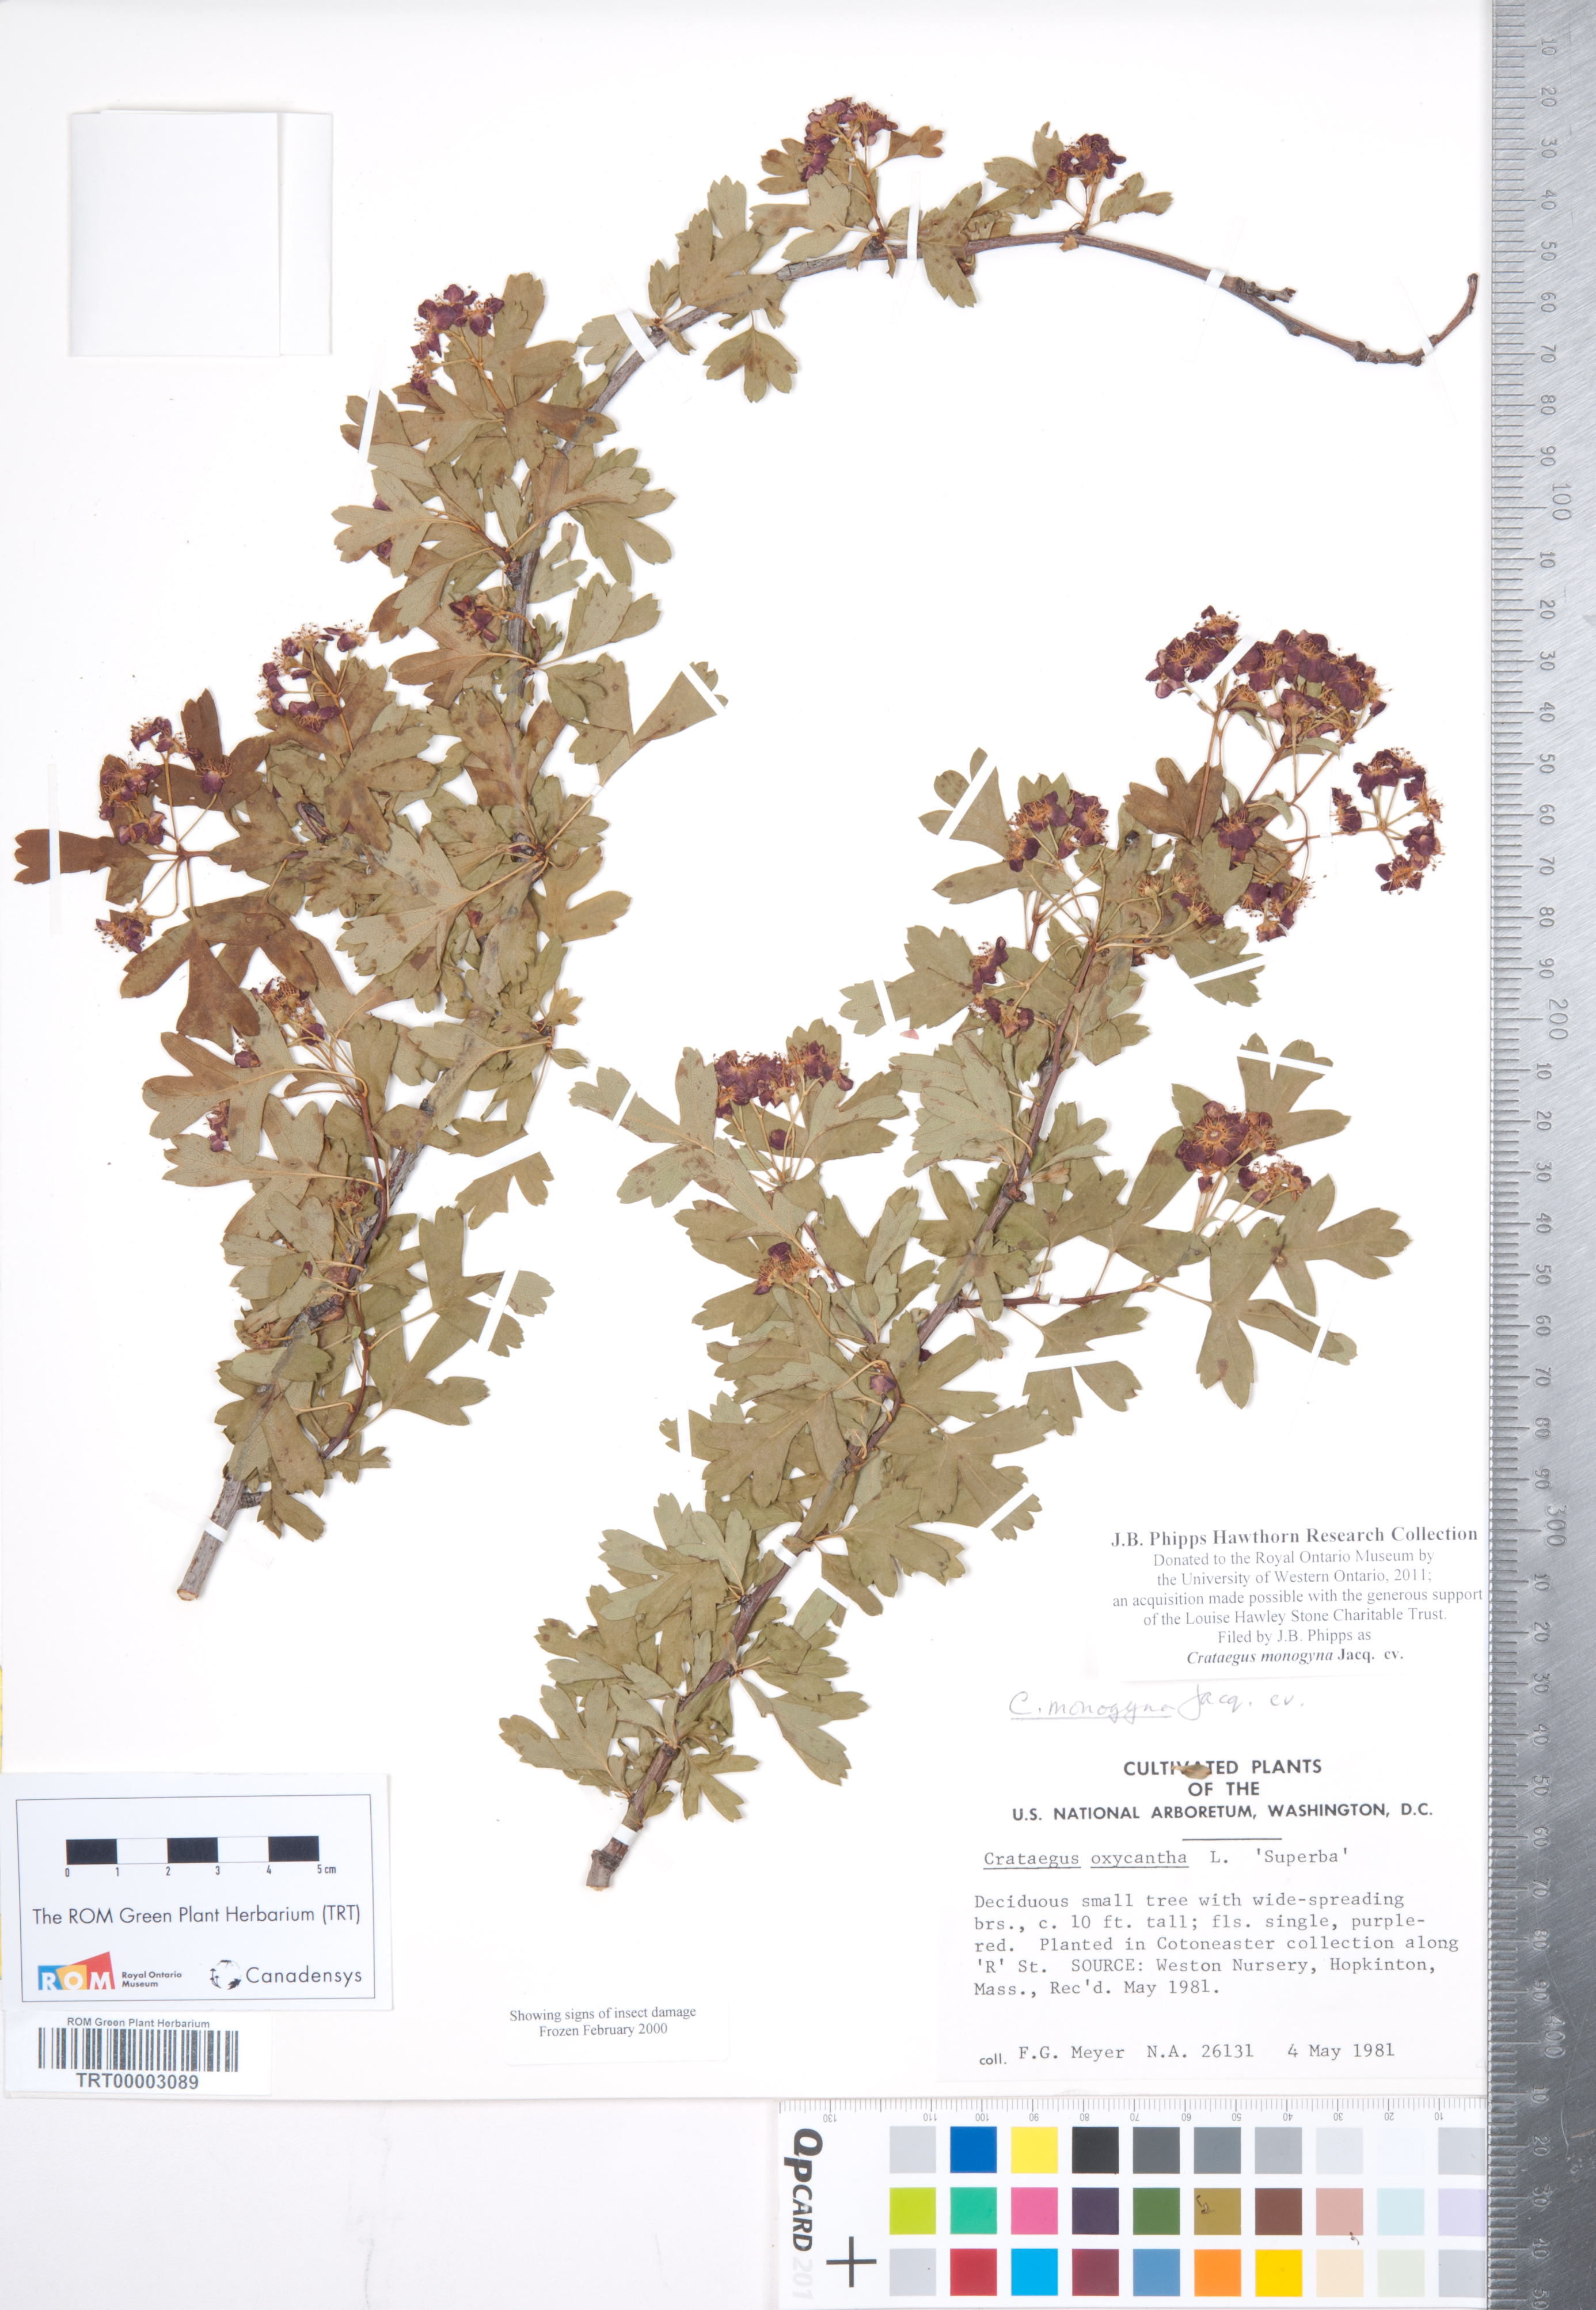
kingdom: Plantae
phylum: Tracheophyta
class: Magnoliopsida
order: Rosales
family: Rosaceae
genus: Crataegus
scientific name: Crataegus monogyna
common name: Hawthorn
